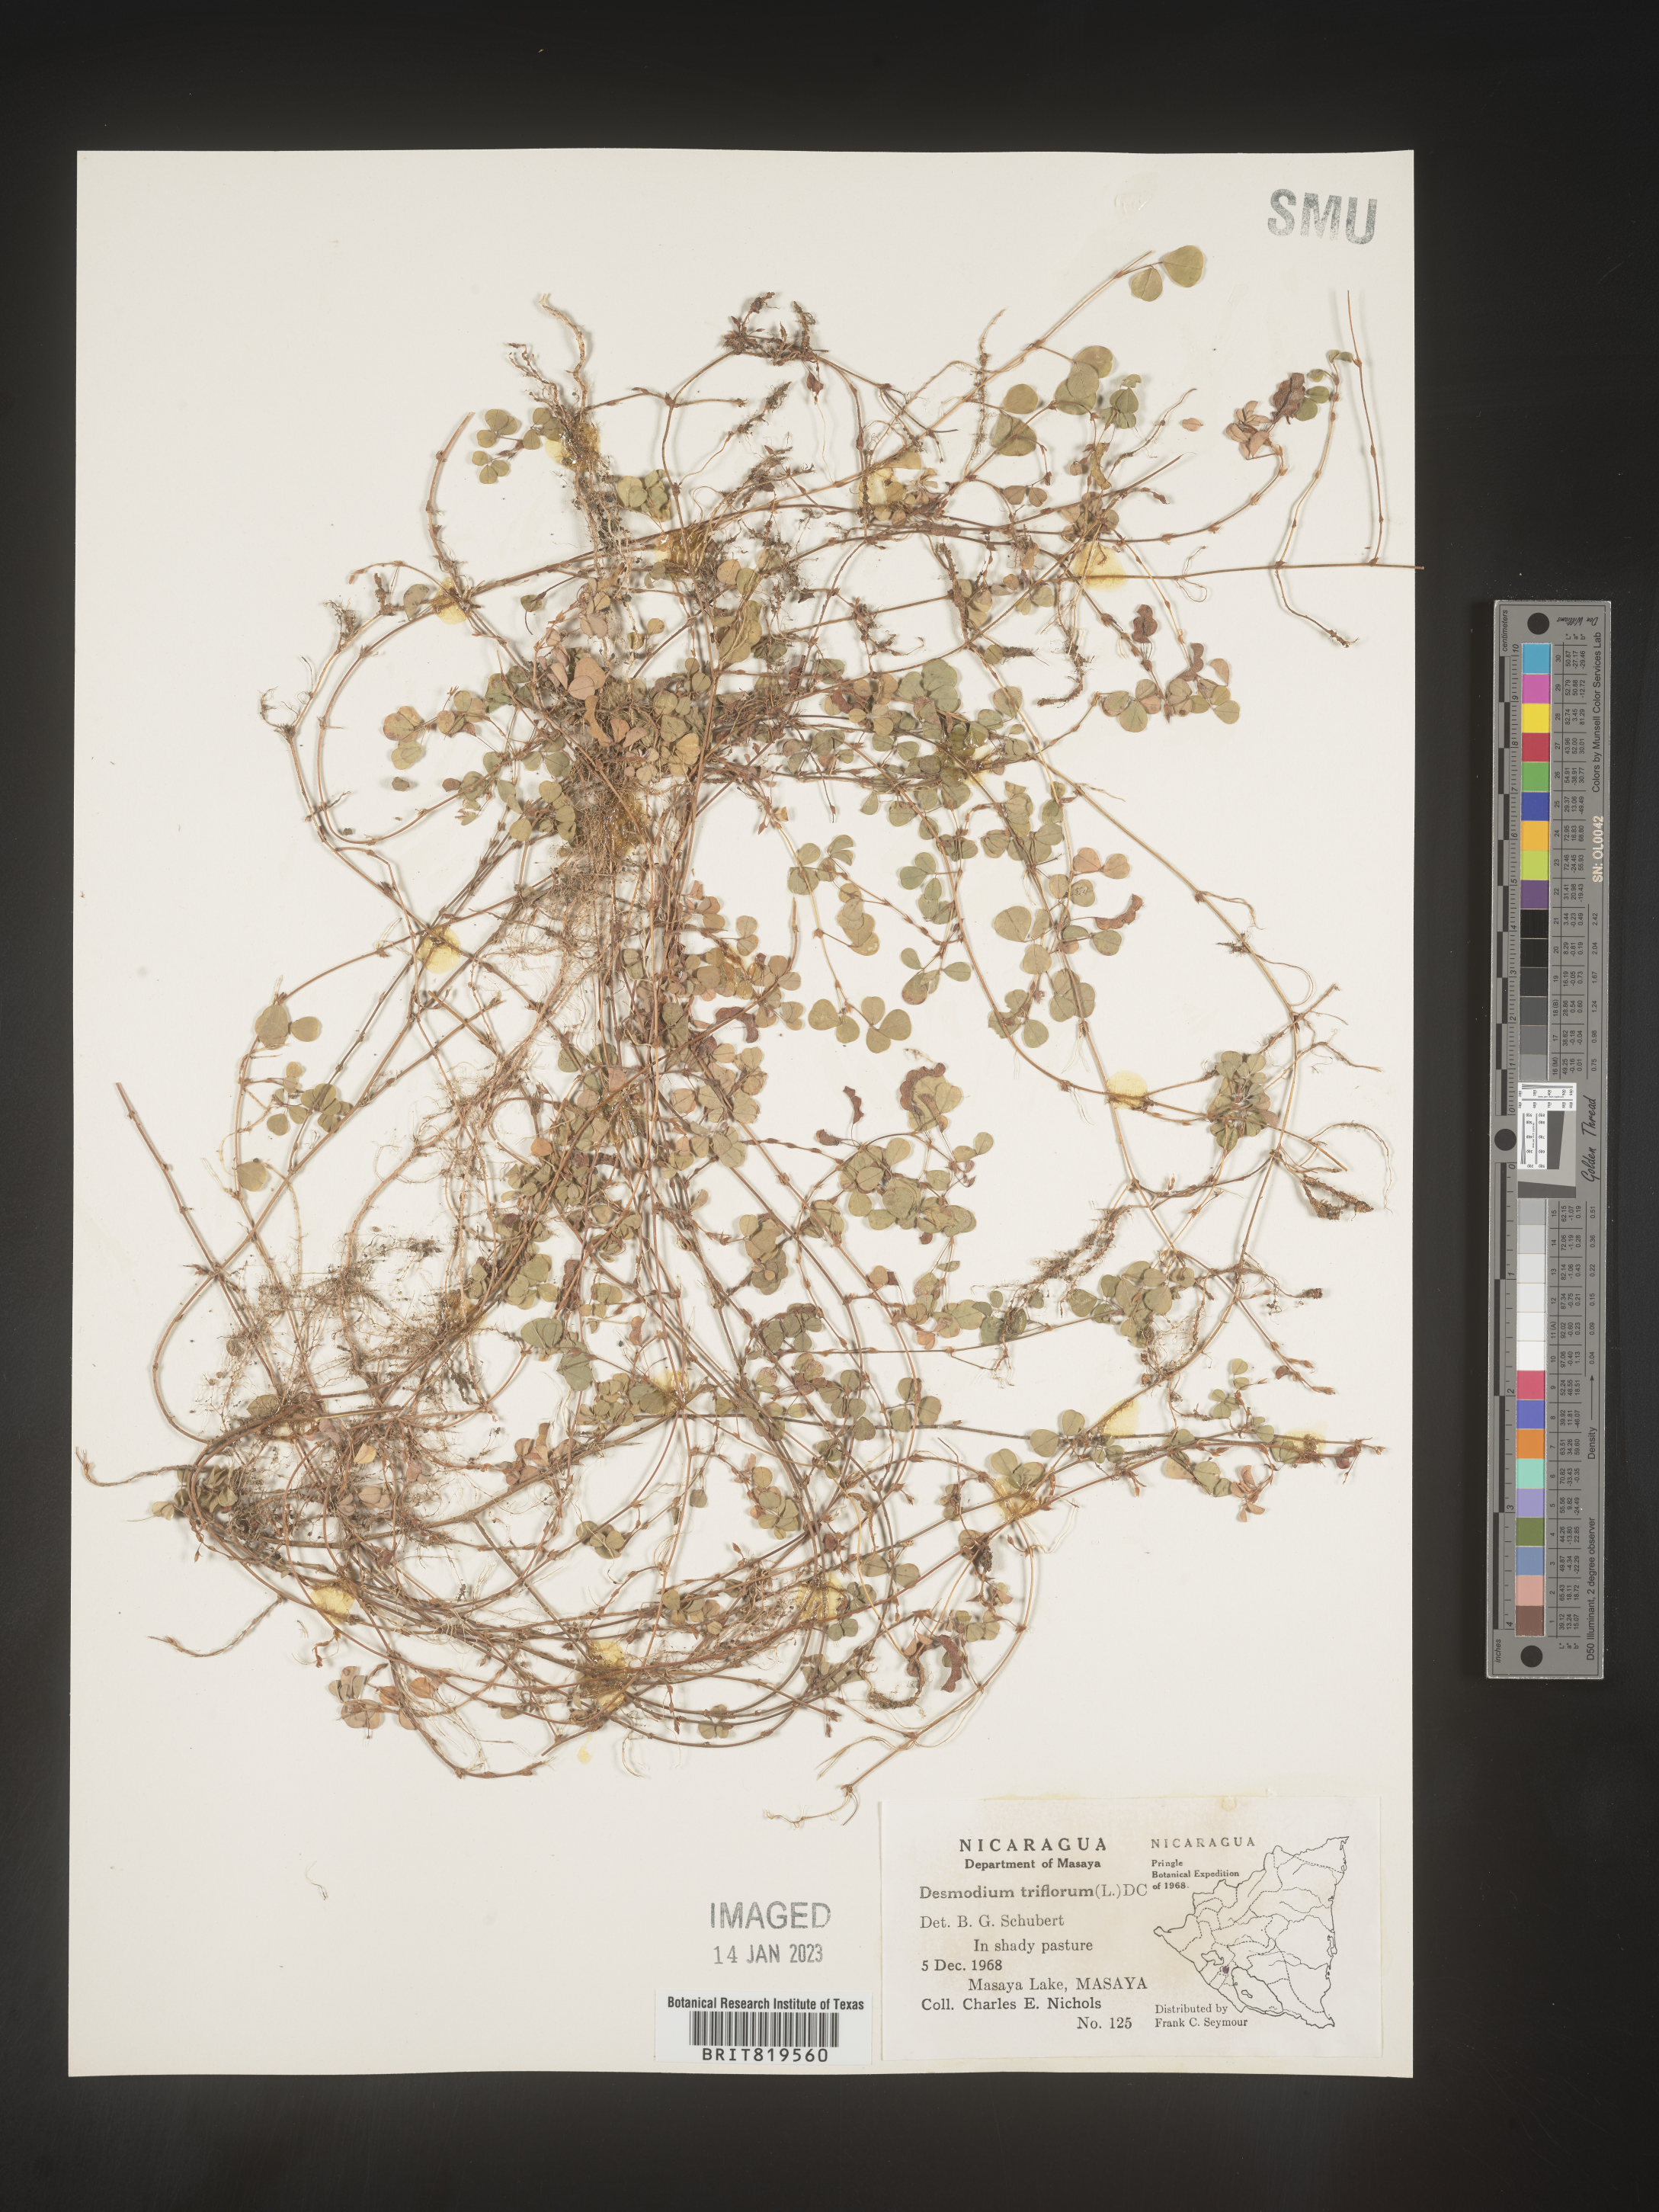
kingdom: Plantae
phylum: Tracheophyta
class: Magnoliopsida
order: Fabales
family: Fabaceae
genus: Desmodium
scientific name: Desmodium
